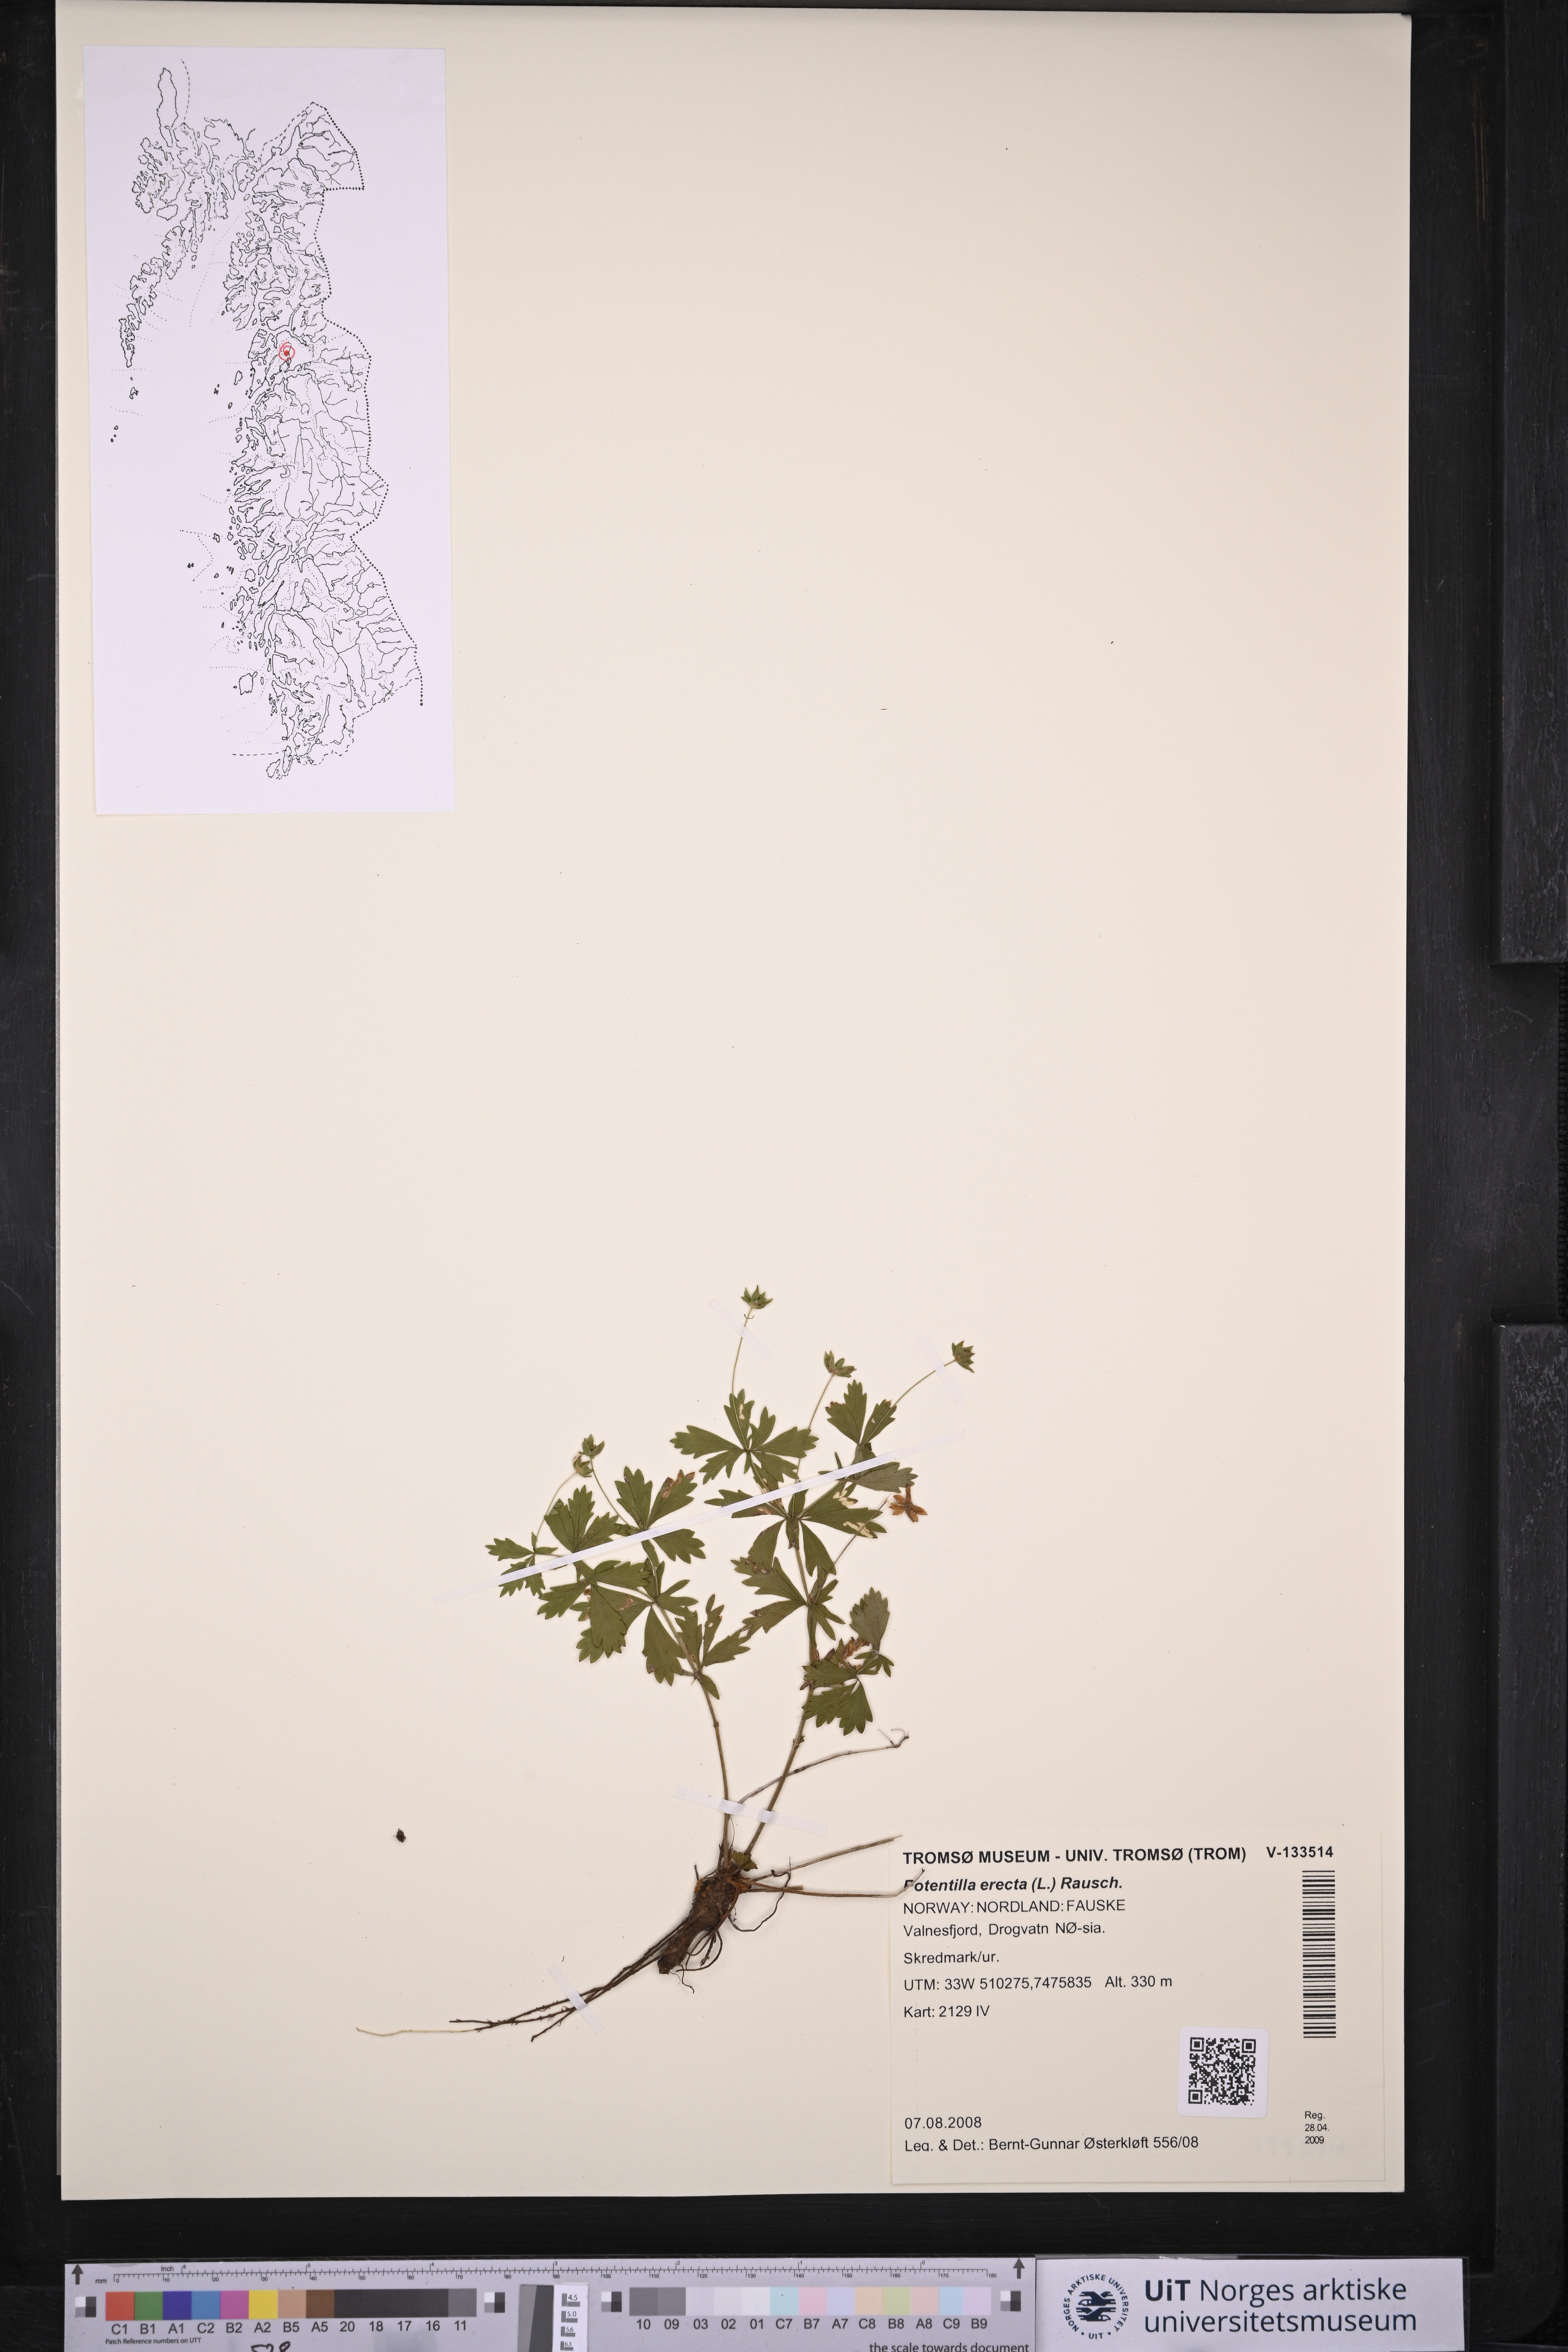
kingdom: Plantae
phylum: Tracheophyta
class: Magnoliopsida
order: Rosales
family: Rosaceae
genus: Potentilla
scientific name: Potentilla erecta
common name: Tormentil
